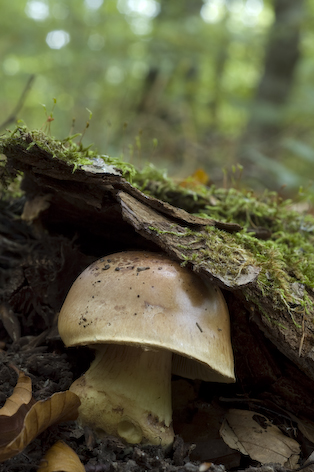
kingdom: Fungi
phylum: Basidiomycota
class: Agaricomycetes
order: Agaricales
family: Cortinariaceae
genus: Cortinarius
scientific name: Cortinarius nanceiensis
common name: banan-slørhat
